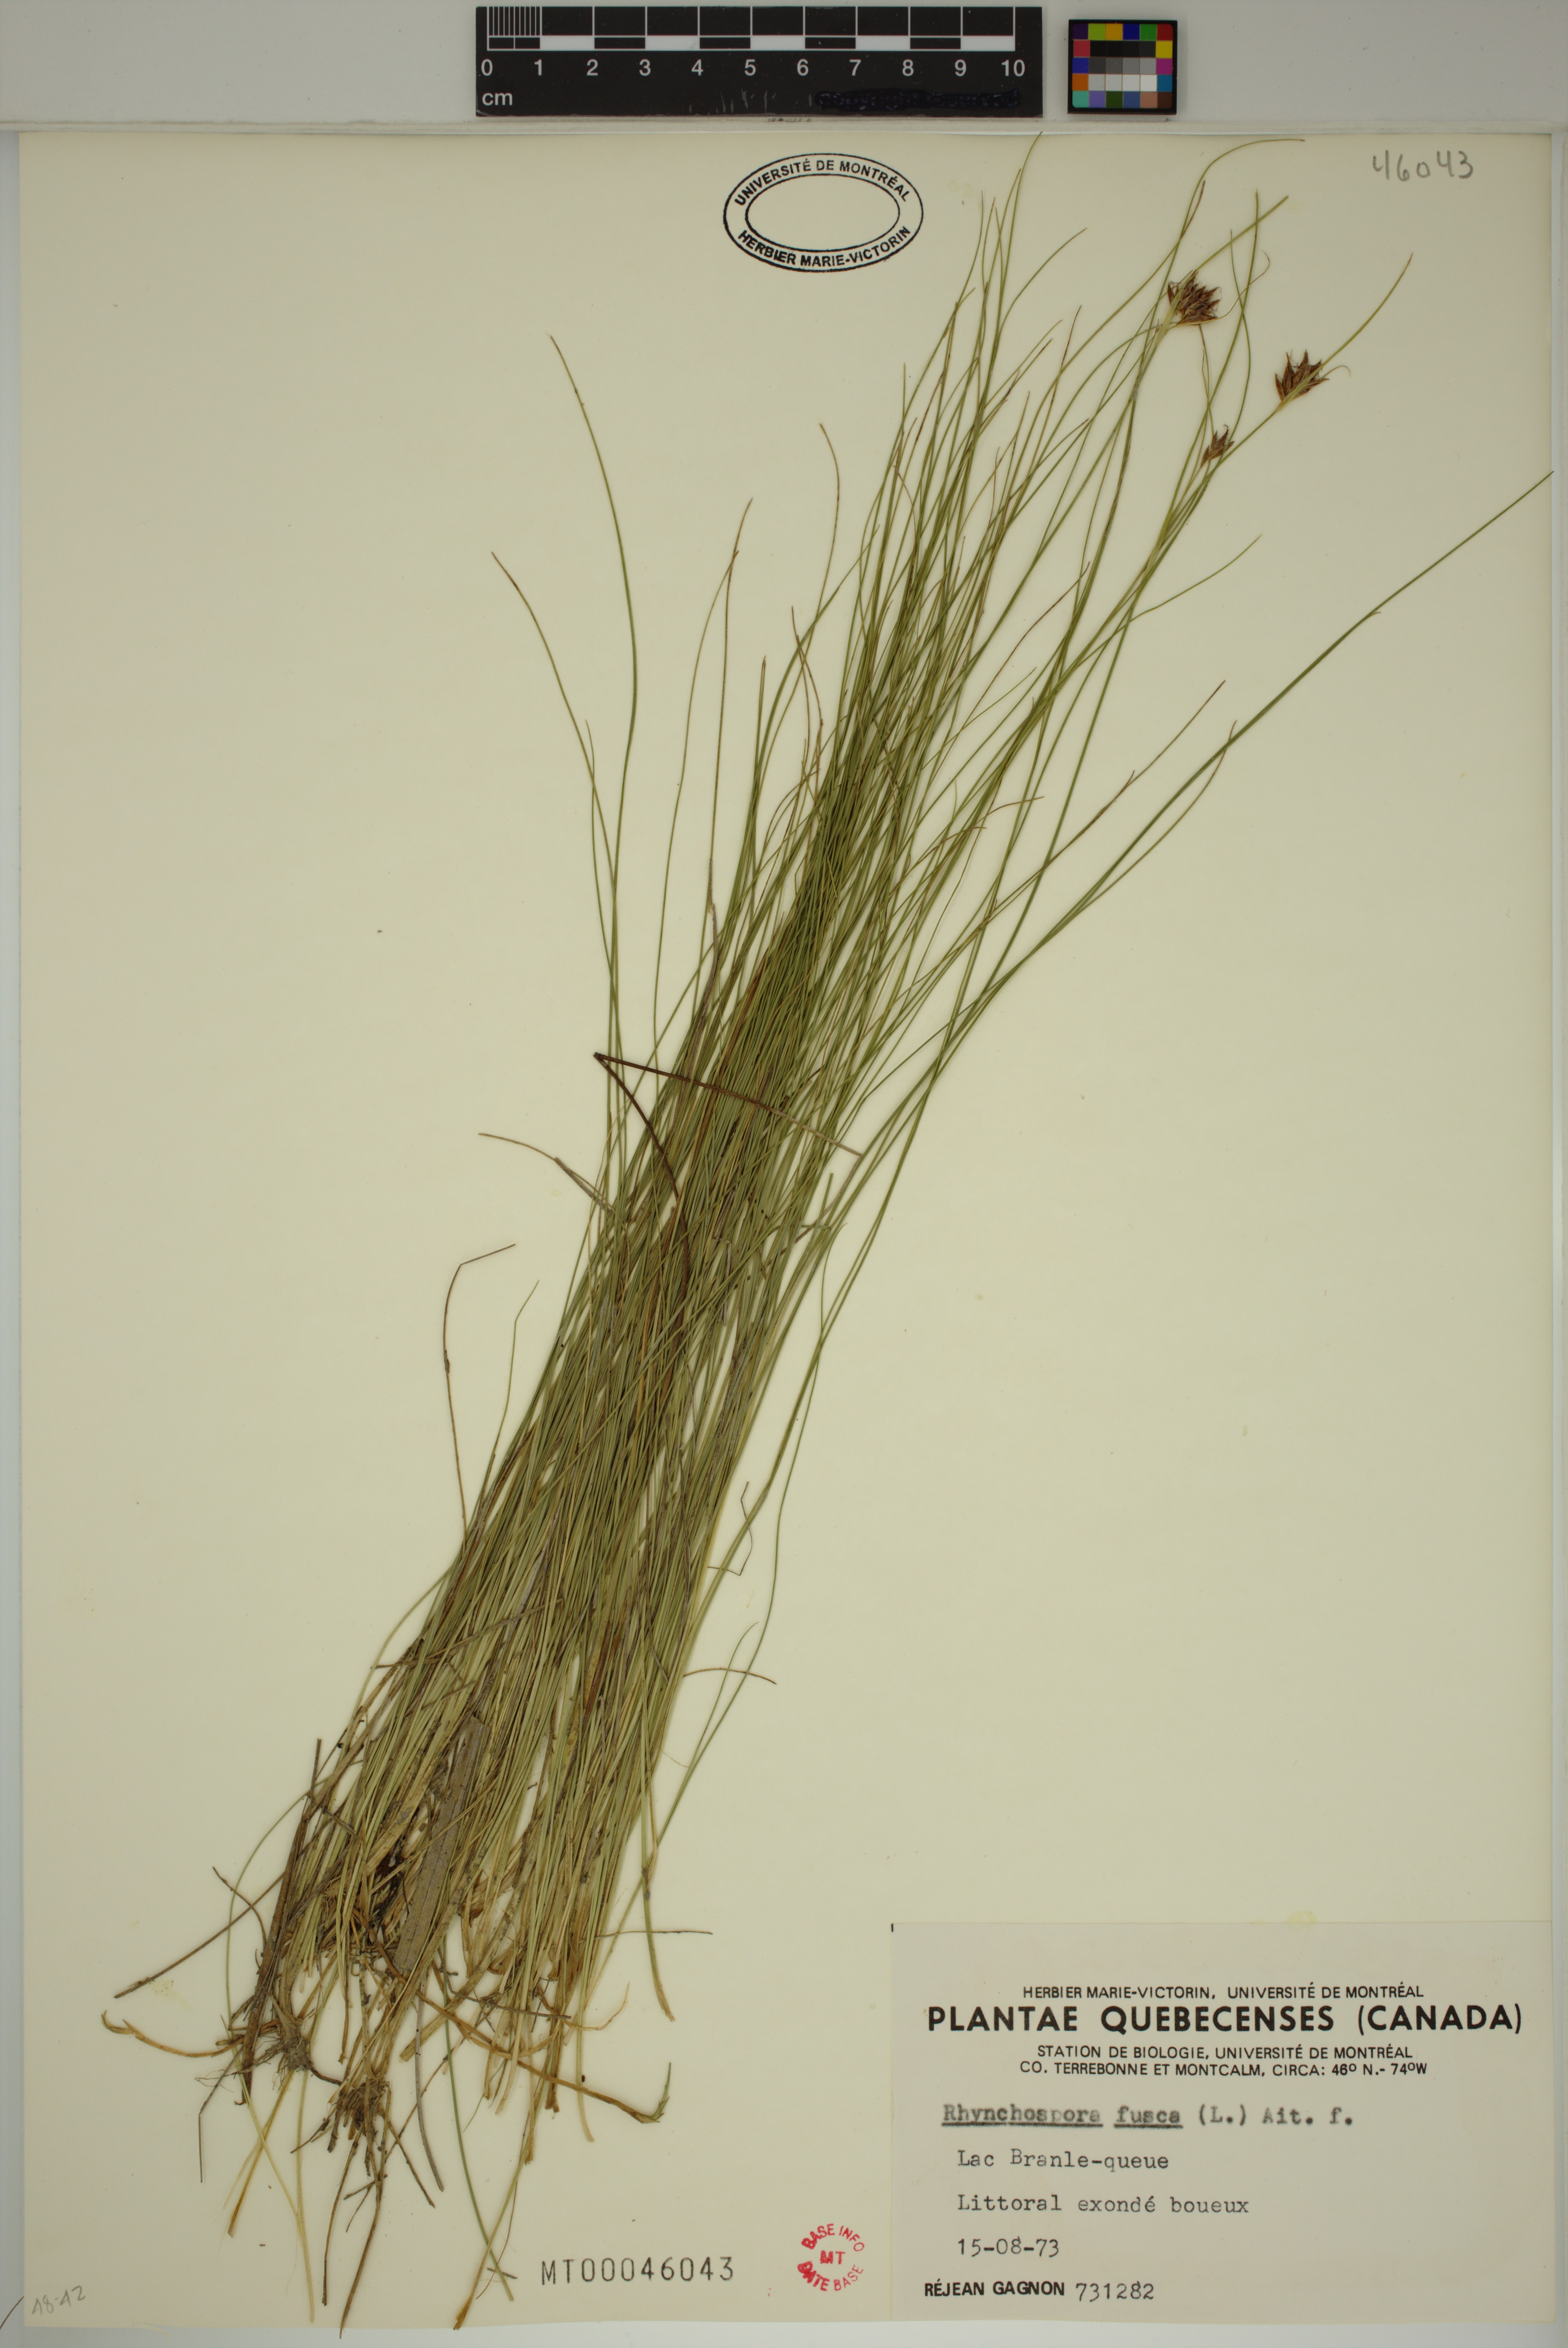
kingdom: Plantae
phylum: Tracheophyta
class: Liliopsida
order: Poales
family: Cyperaceae
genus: Rhynchospora
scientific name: Rhynchospora fusca
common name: Brown beak-sedge
